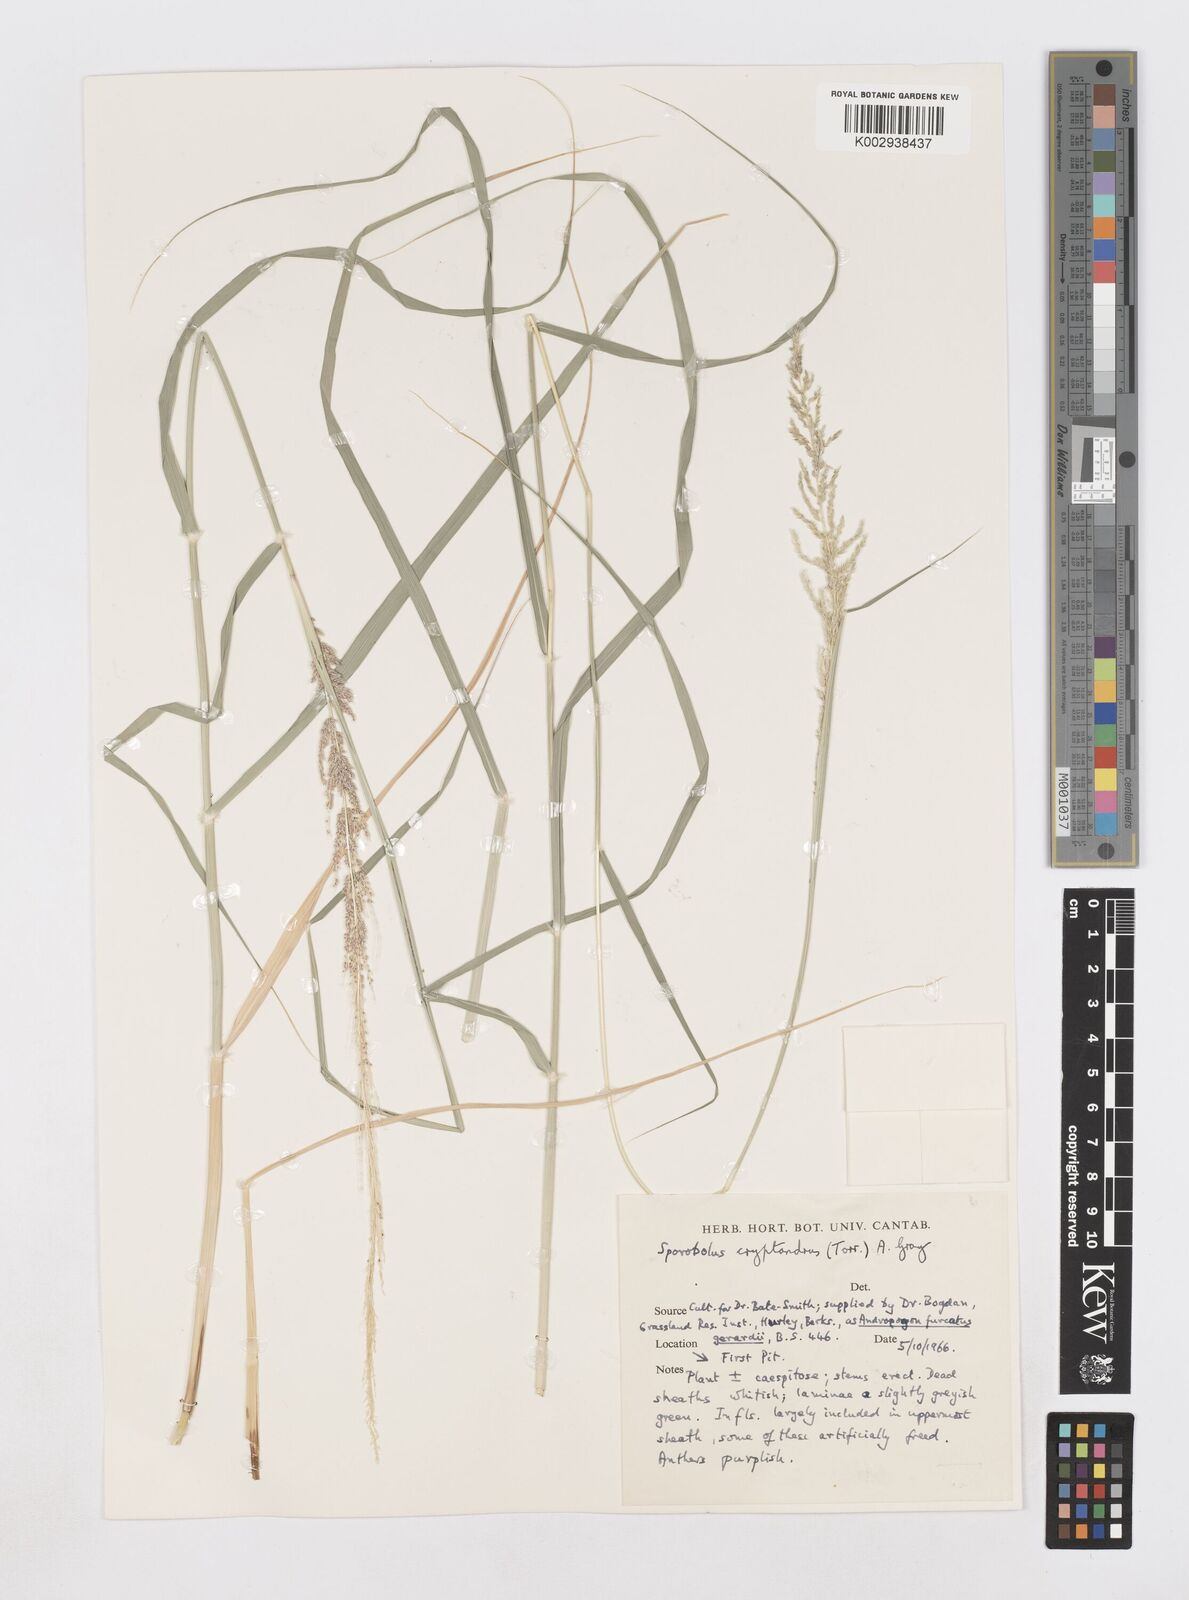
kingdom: Plantae
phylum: Tracheophyta
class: Liliopsida
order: Poales
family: Poaceae
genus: Sporobolus
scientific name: Sporobolus cryptandrus
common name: Sand dropseed
